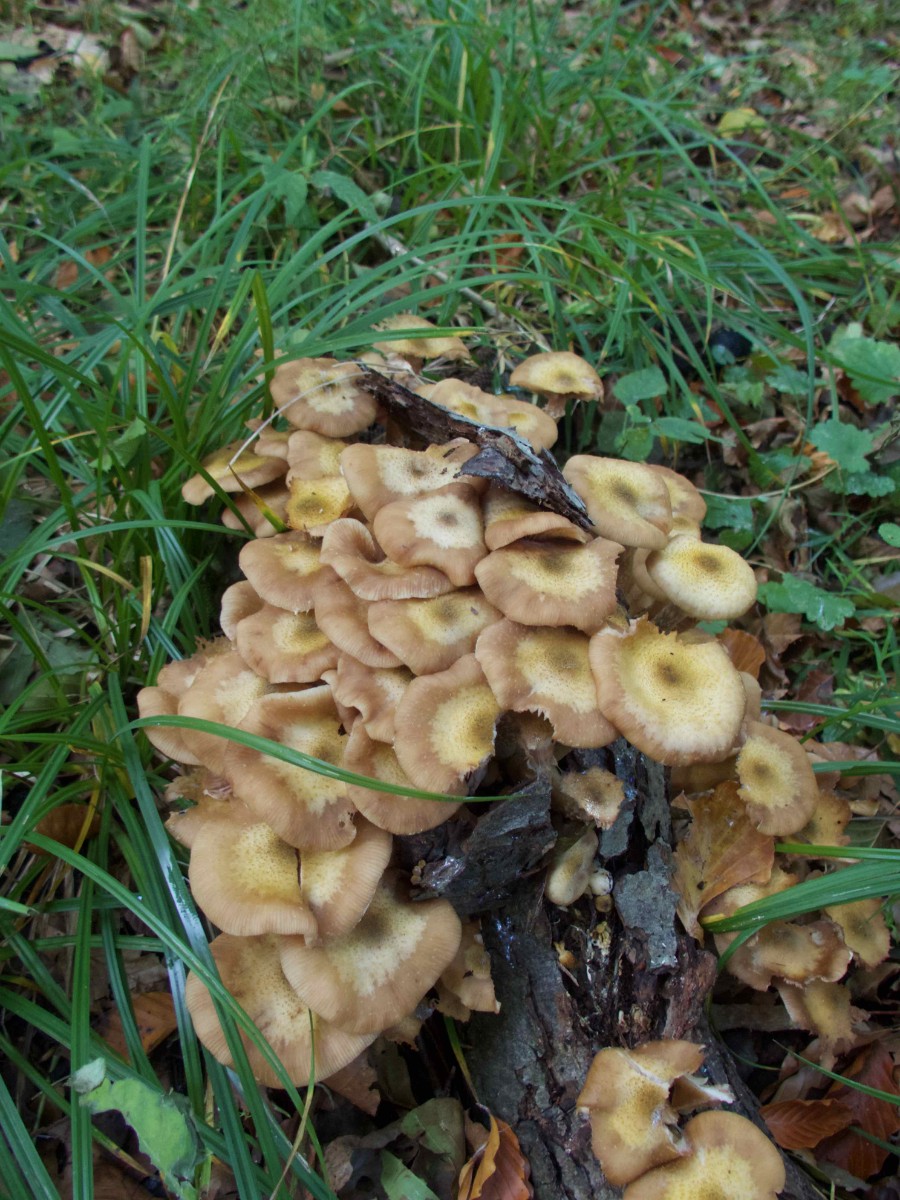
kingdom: Fungi
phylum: Basidiomycota
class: Agaricomycetes
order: Agaricales
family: Physalacriaceae
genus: Armillaria
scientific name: Armillaria lutea
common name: køllestokket honningsvamp
